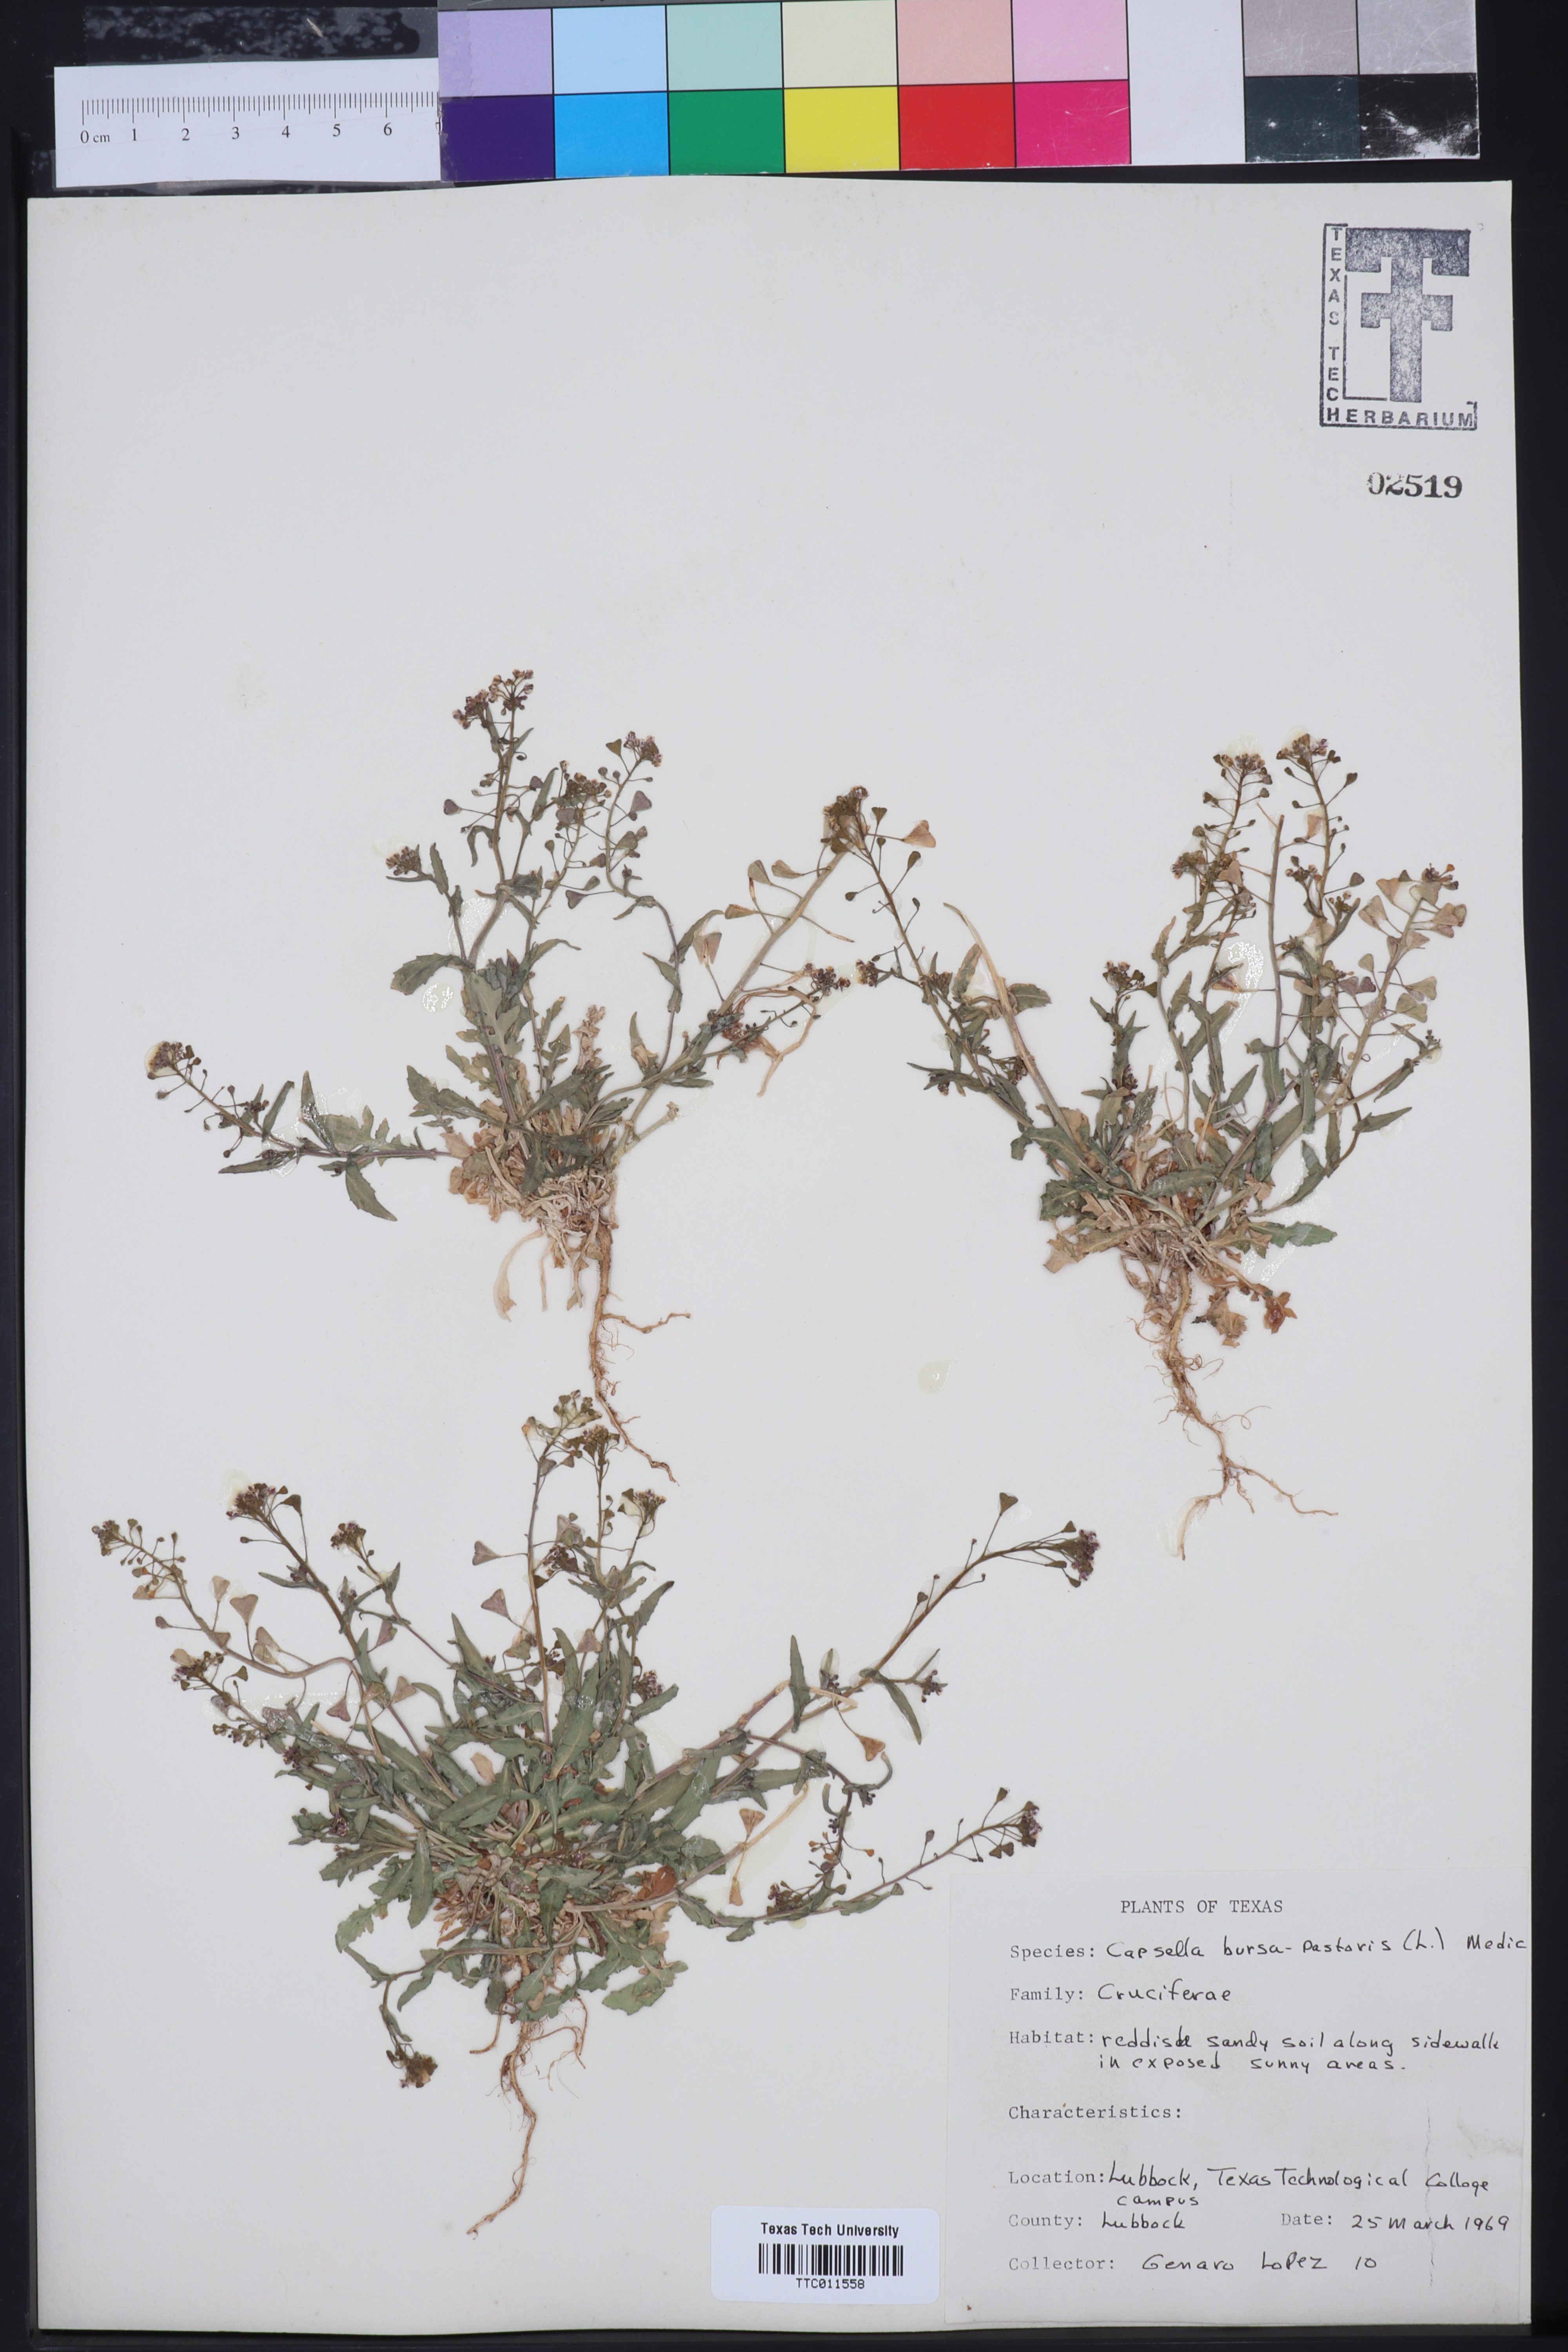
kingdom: Plantae
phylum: Tracheophyta
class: Magnoliopsida
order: Brassicales
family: Brassicaceae
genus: Capsella
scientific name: Capsella bursa-pastoris
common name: Shepherd's purse
